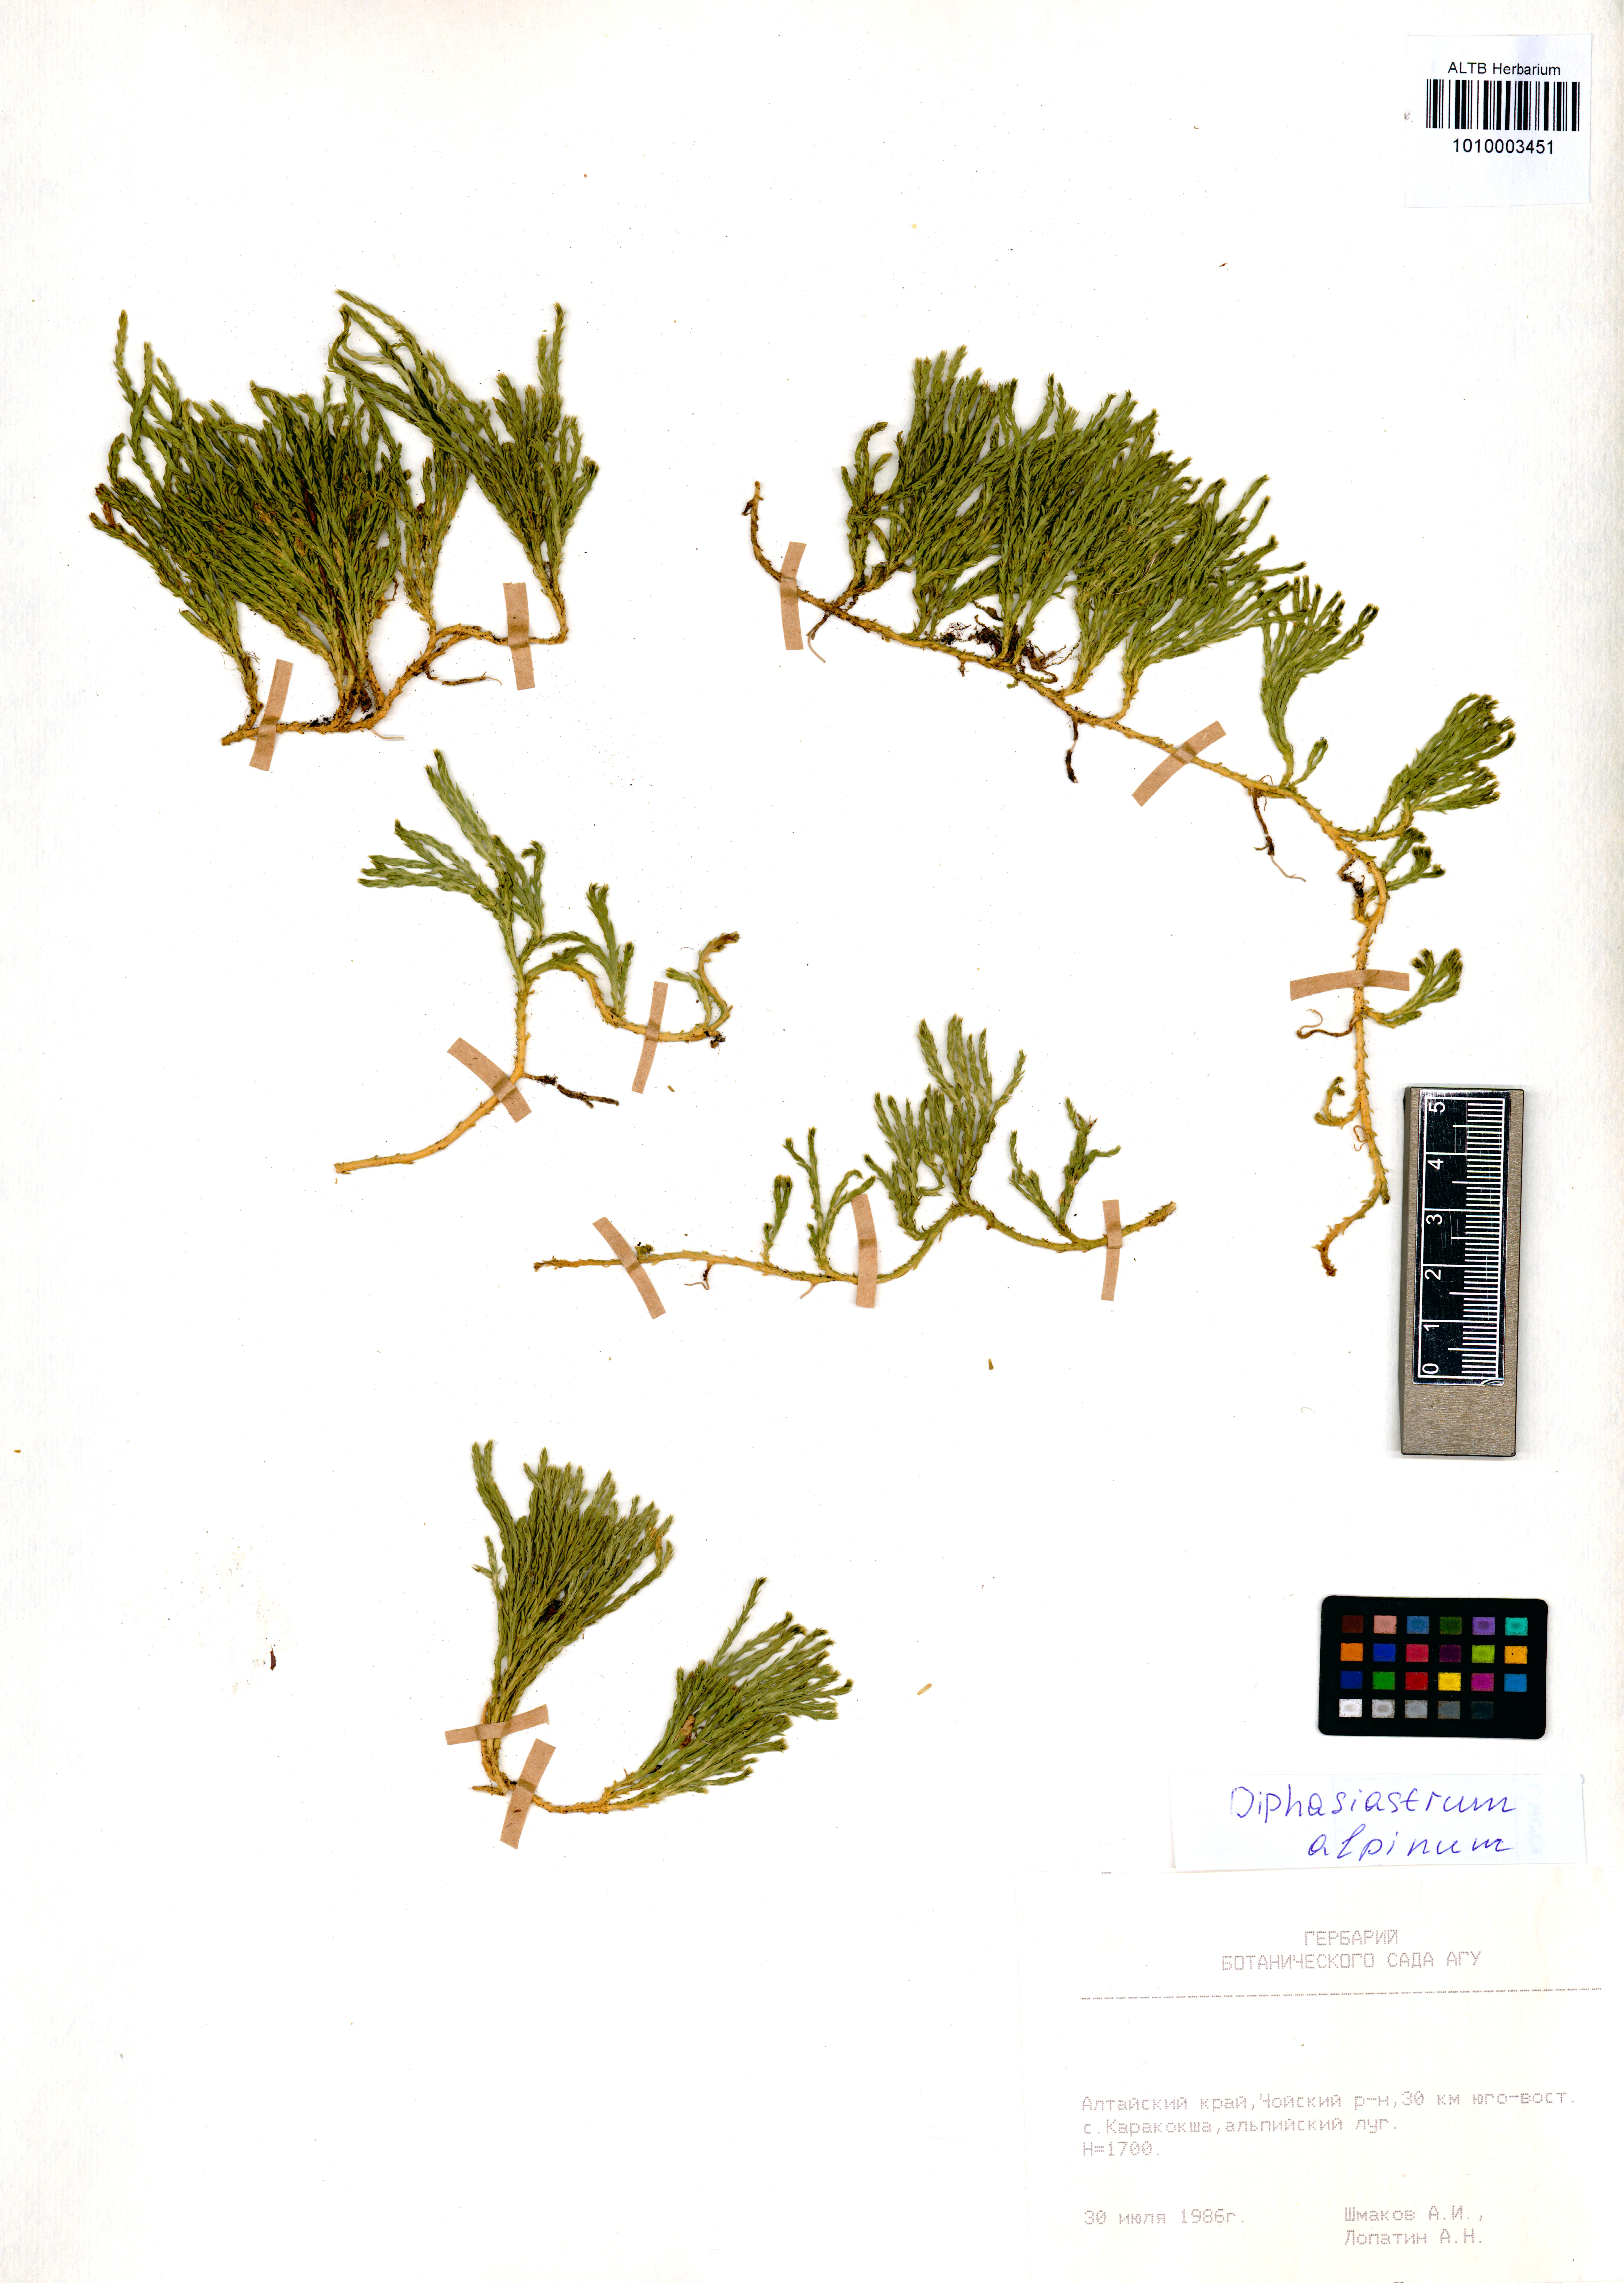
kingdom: Plantae
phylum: Tracheophyta
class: Lycopodiopsida
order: Lycopodiales
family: Lycopodiaceae
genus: Diphasiastrum
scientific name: Diphasiastrum alpinum
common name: Alpine clubmoss
